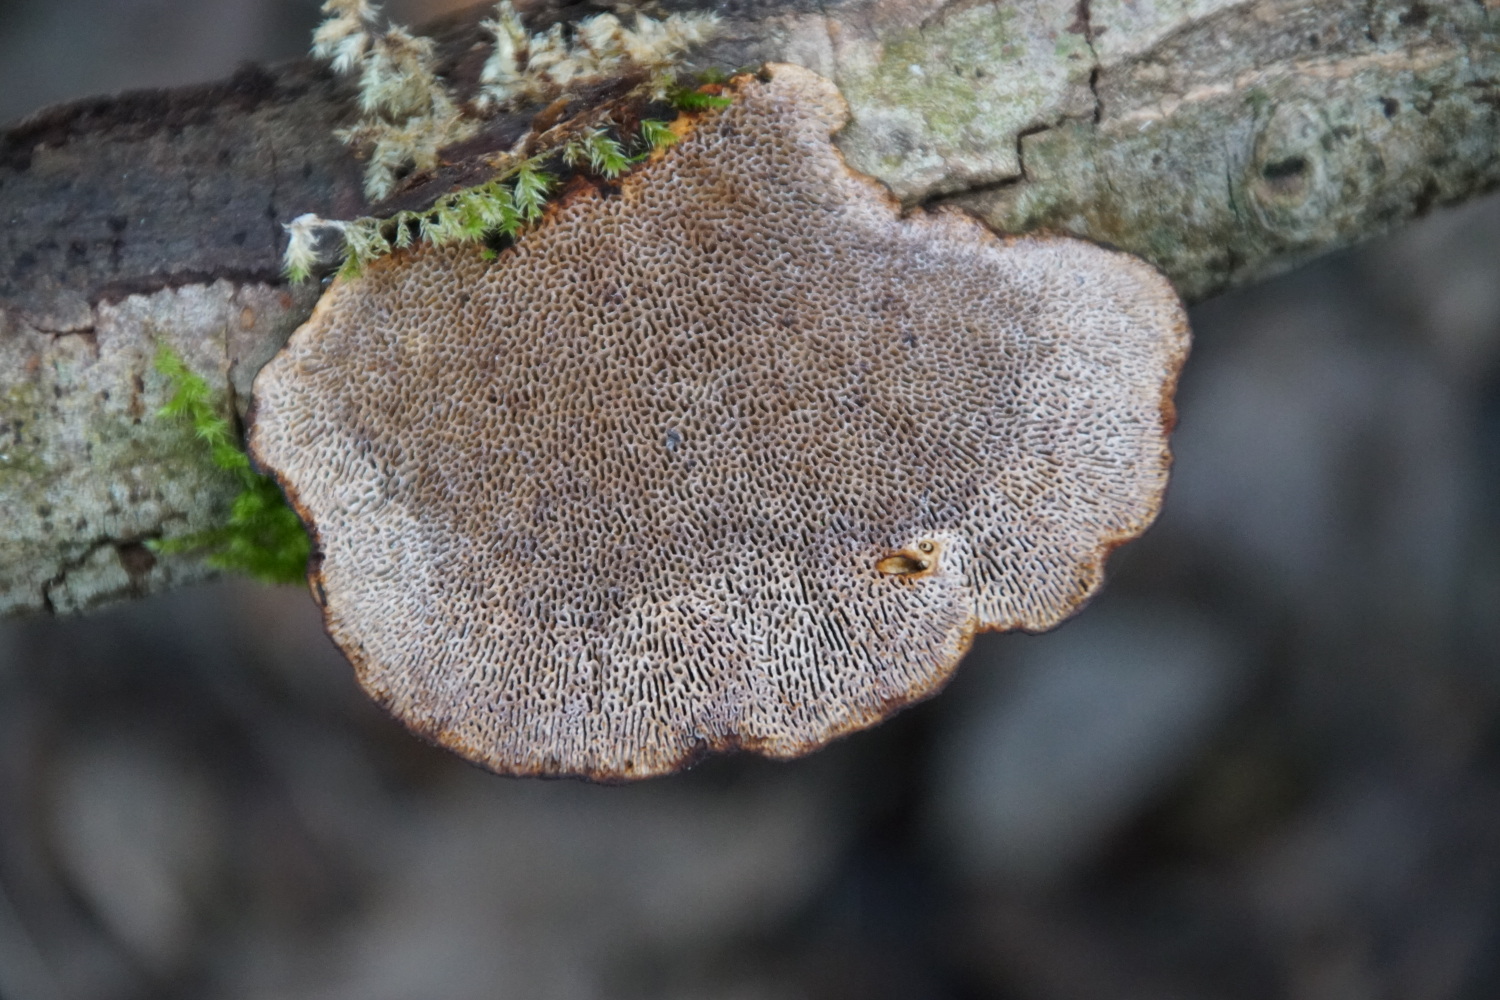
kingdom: Fungi
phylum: Basidiomycota
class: Agaricomycetes
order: Polyporales
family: Polyporaceae
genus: Daedaleopsis
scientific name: Daedaleopsis confragosa
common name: rødmende læderporesvamp
